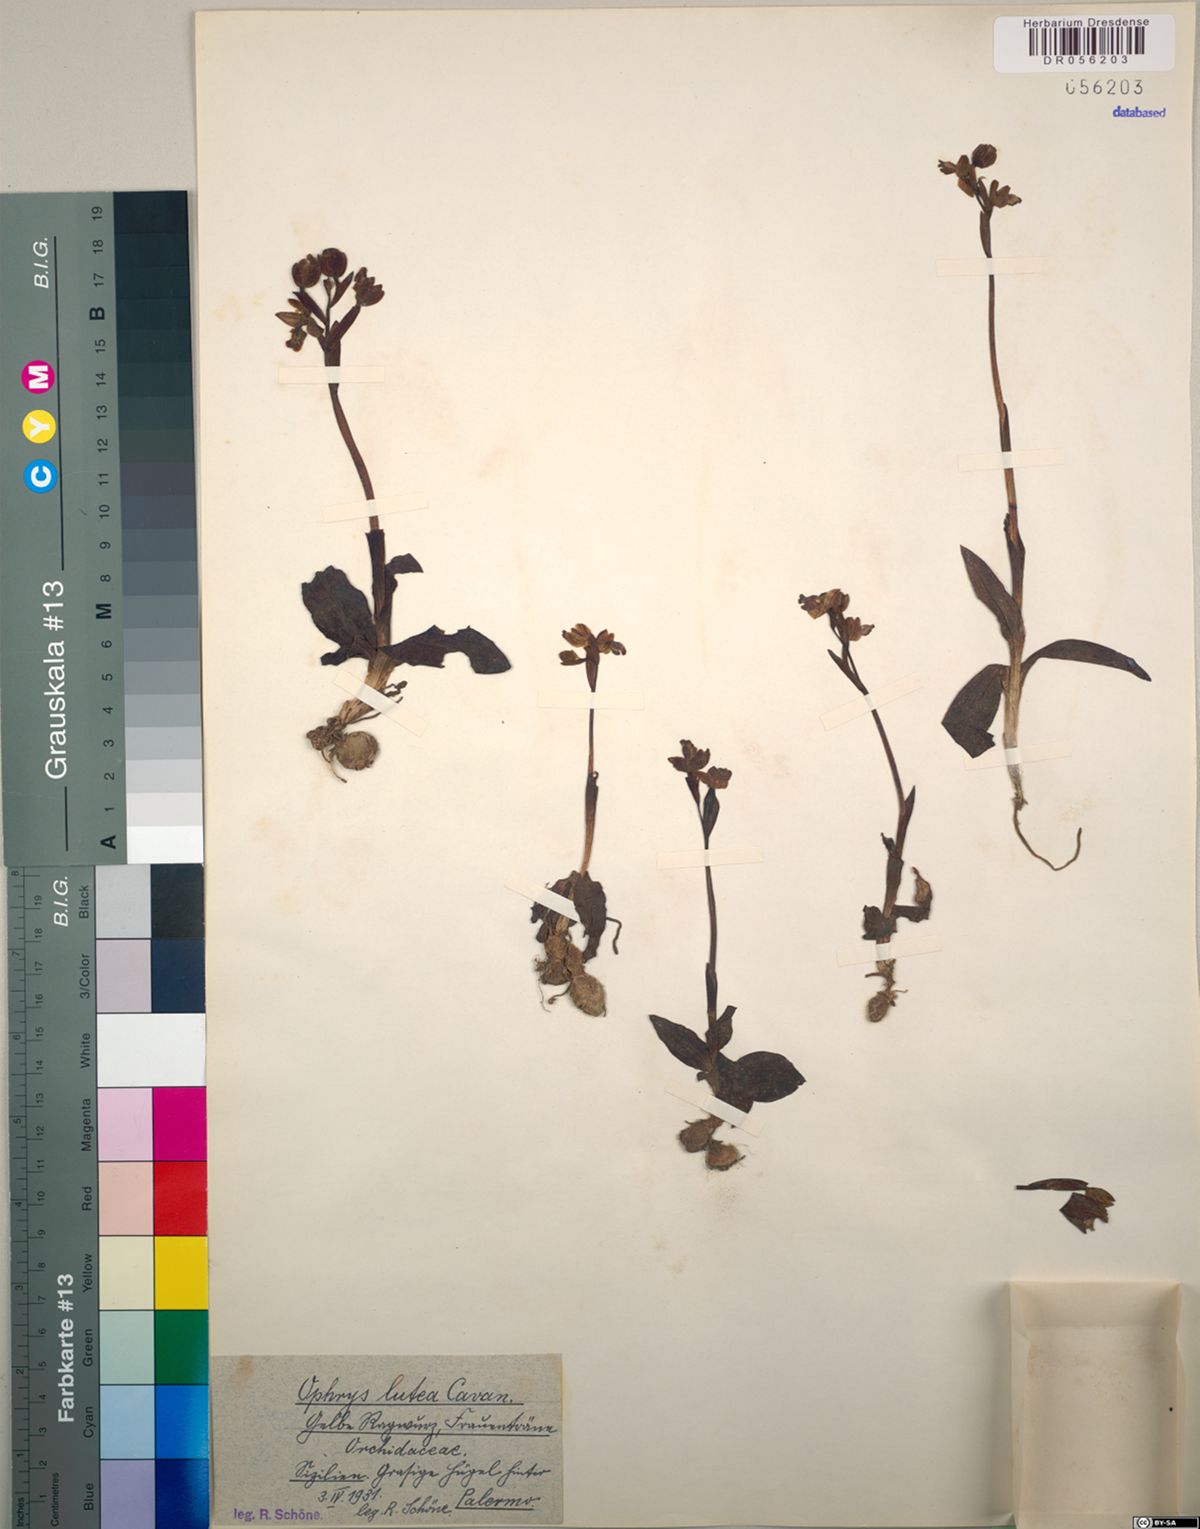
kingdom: Plantae
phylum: Tracheophyta
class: Liliopsida
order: Asparagales
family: Orchidaceae
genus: Ophrys
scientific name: Ophrys lutea
